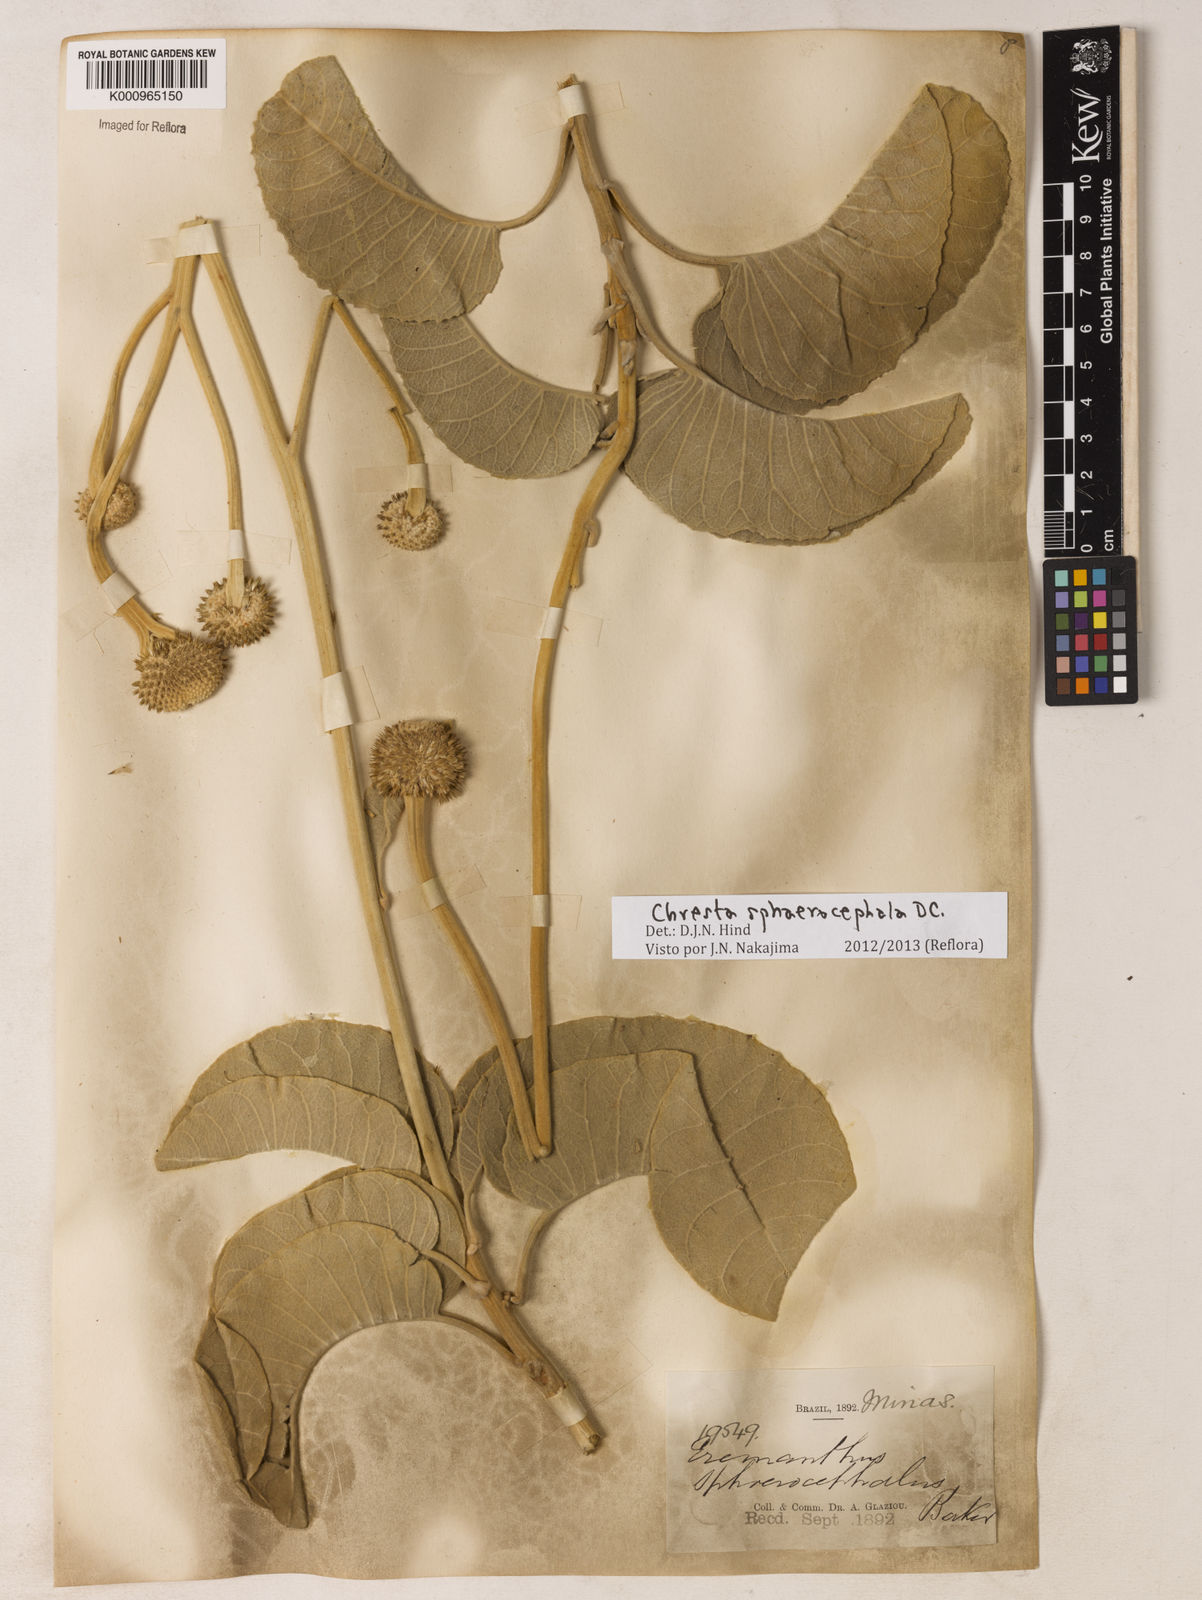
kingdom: Plantae
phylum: Tracheophyta
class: Magnoliopsida
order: Asterales
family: Asteraceae
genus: Chresta
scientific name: Chresta sphaerocephala
